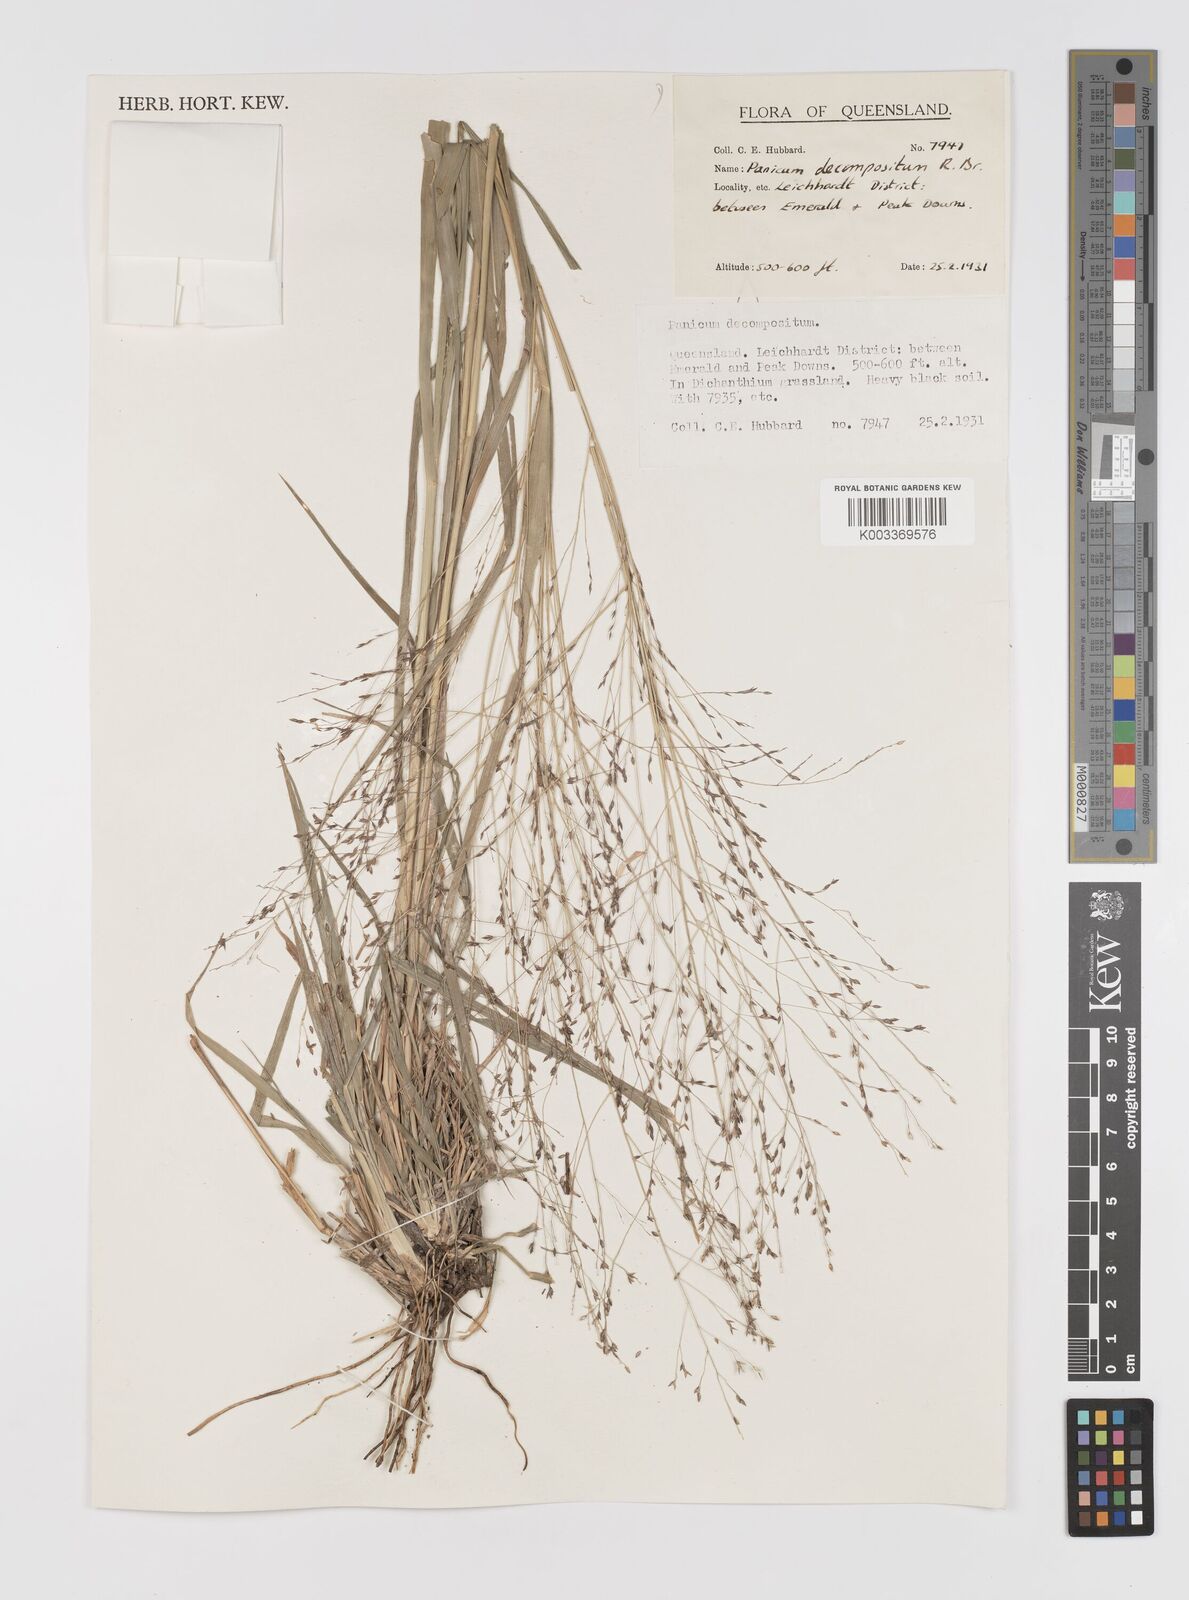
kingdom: Plantae
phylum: Tracheophyta
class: Liliopsida
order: Poales
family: Poaceae
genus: Panicum
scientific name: Panicum decompositum
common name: Australian millet
